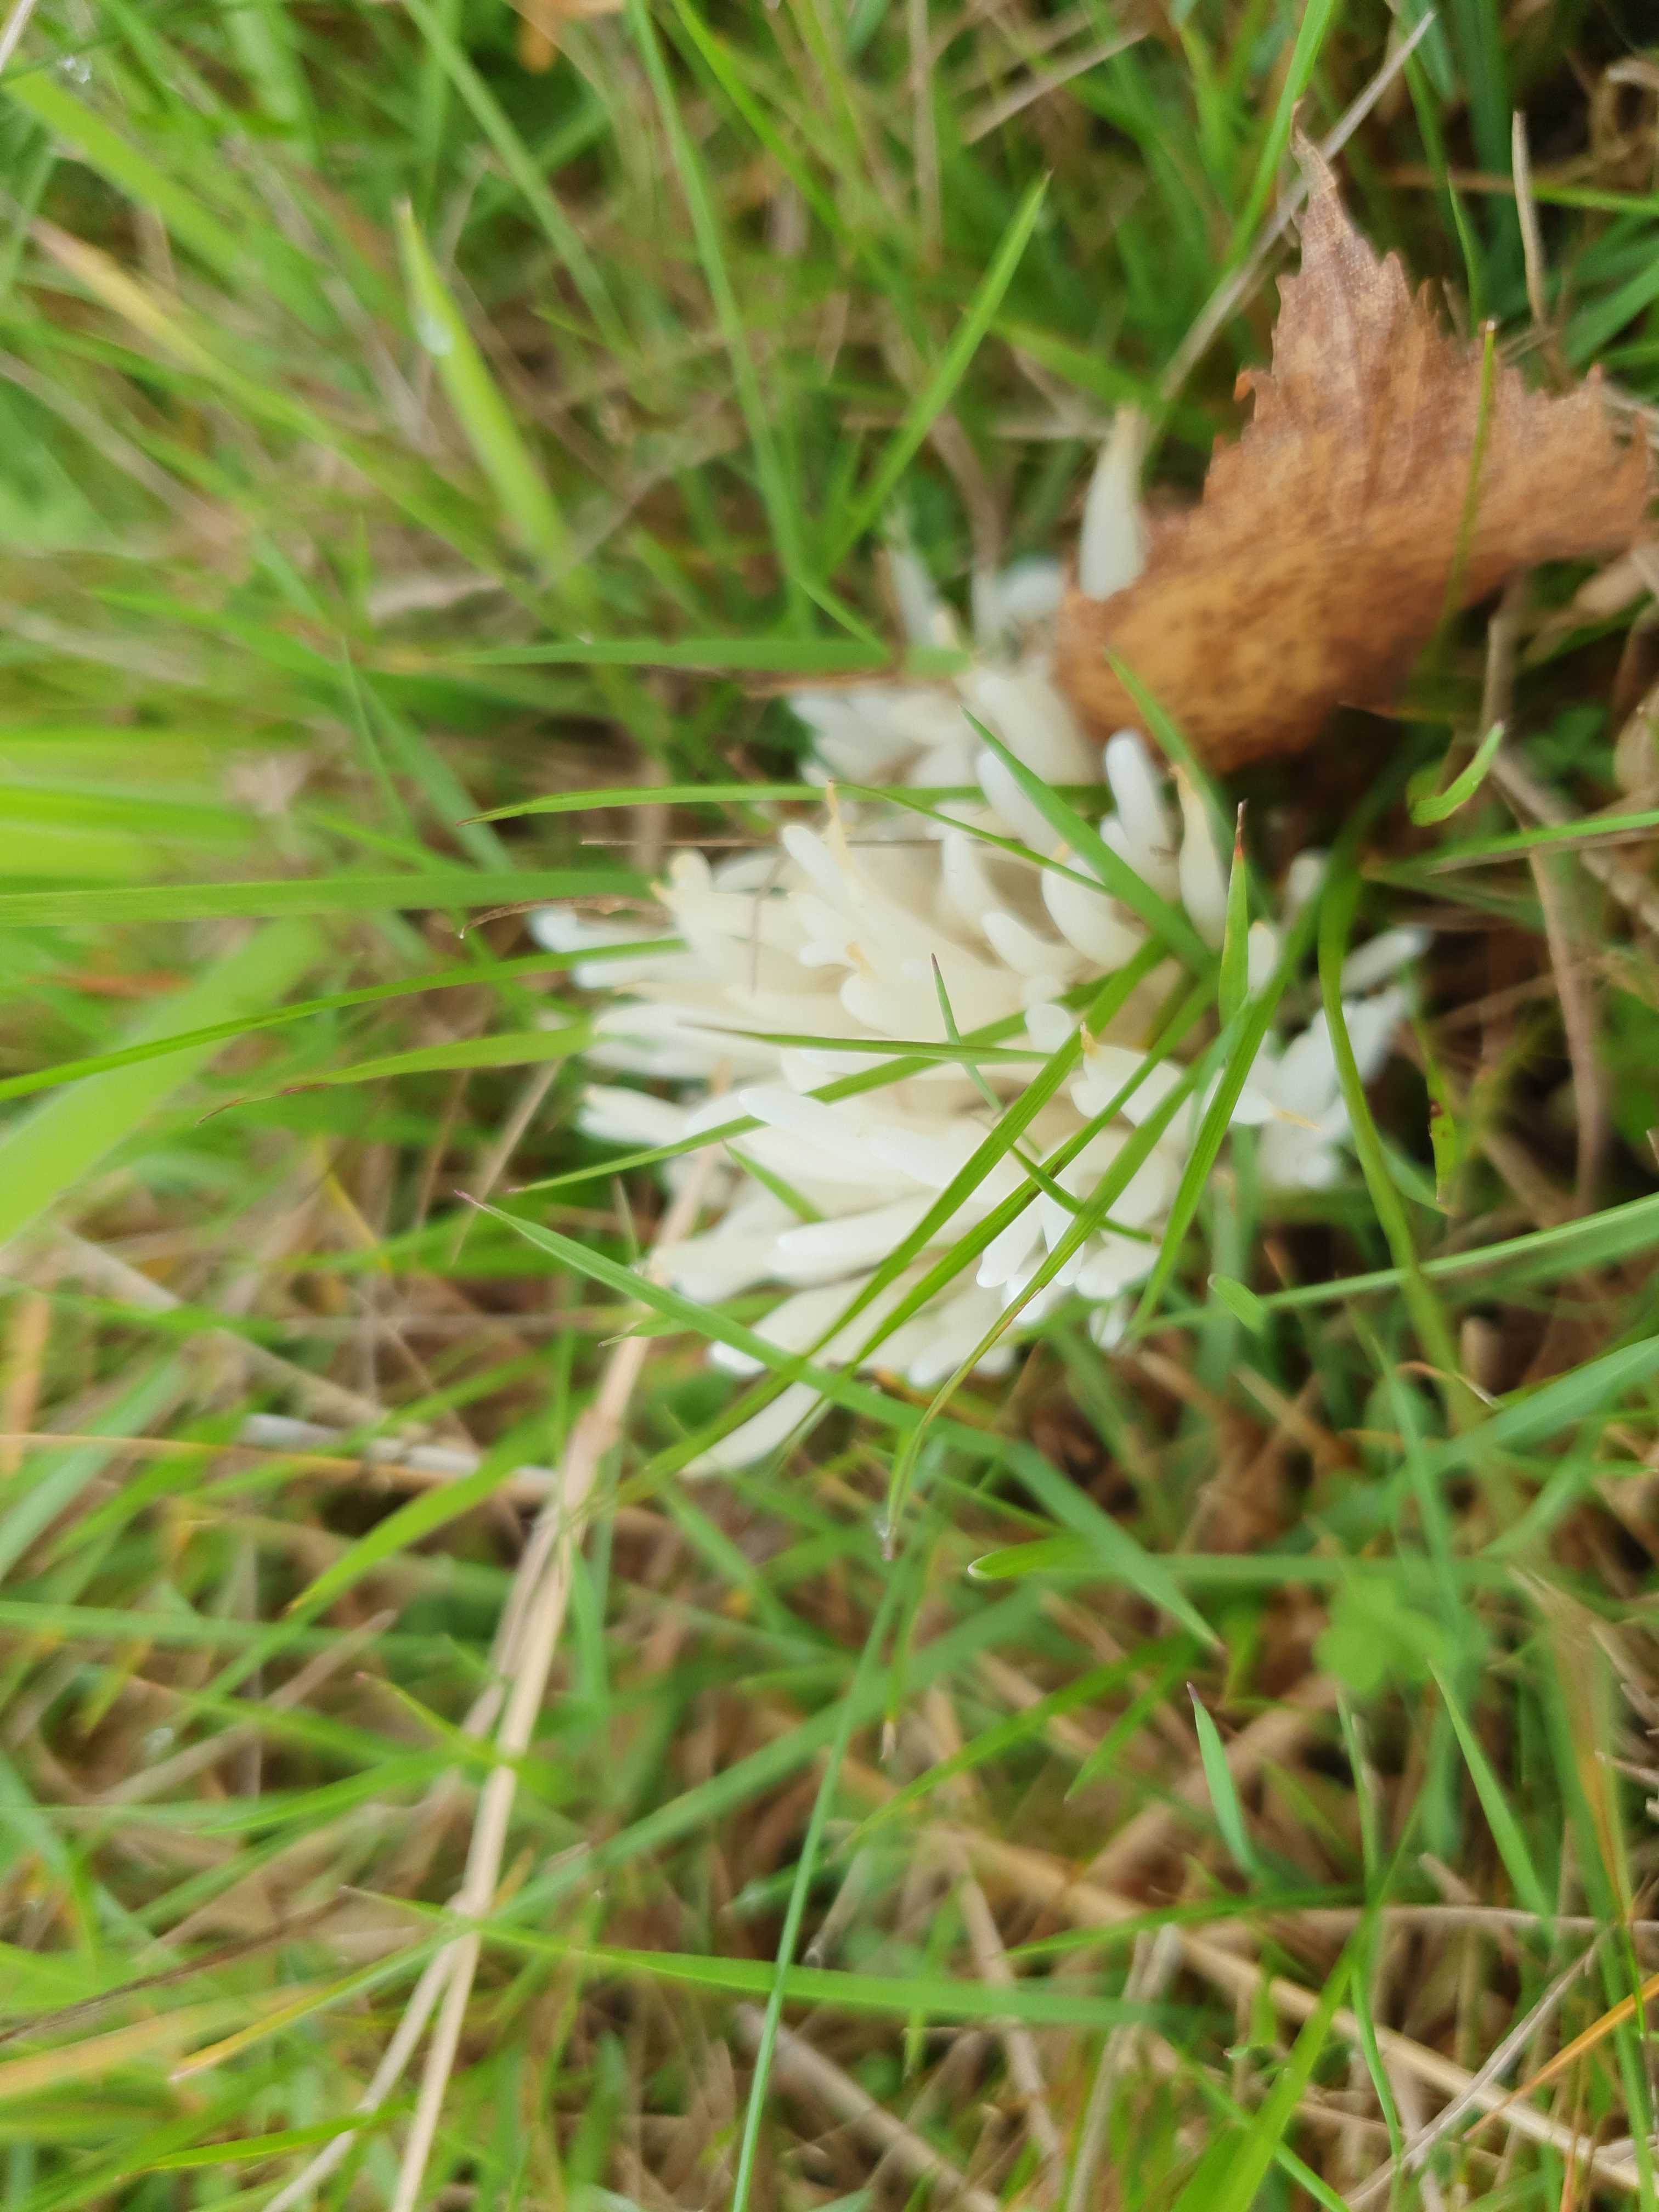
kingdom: Fungi
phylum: Basidiomycota
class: Agaricomycetes
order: Agaricales
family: Clavariaceae
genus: Clavaria
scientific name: Clavaria fragilis
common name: bugtet køllesvamp
